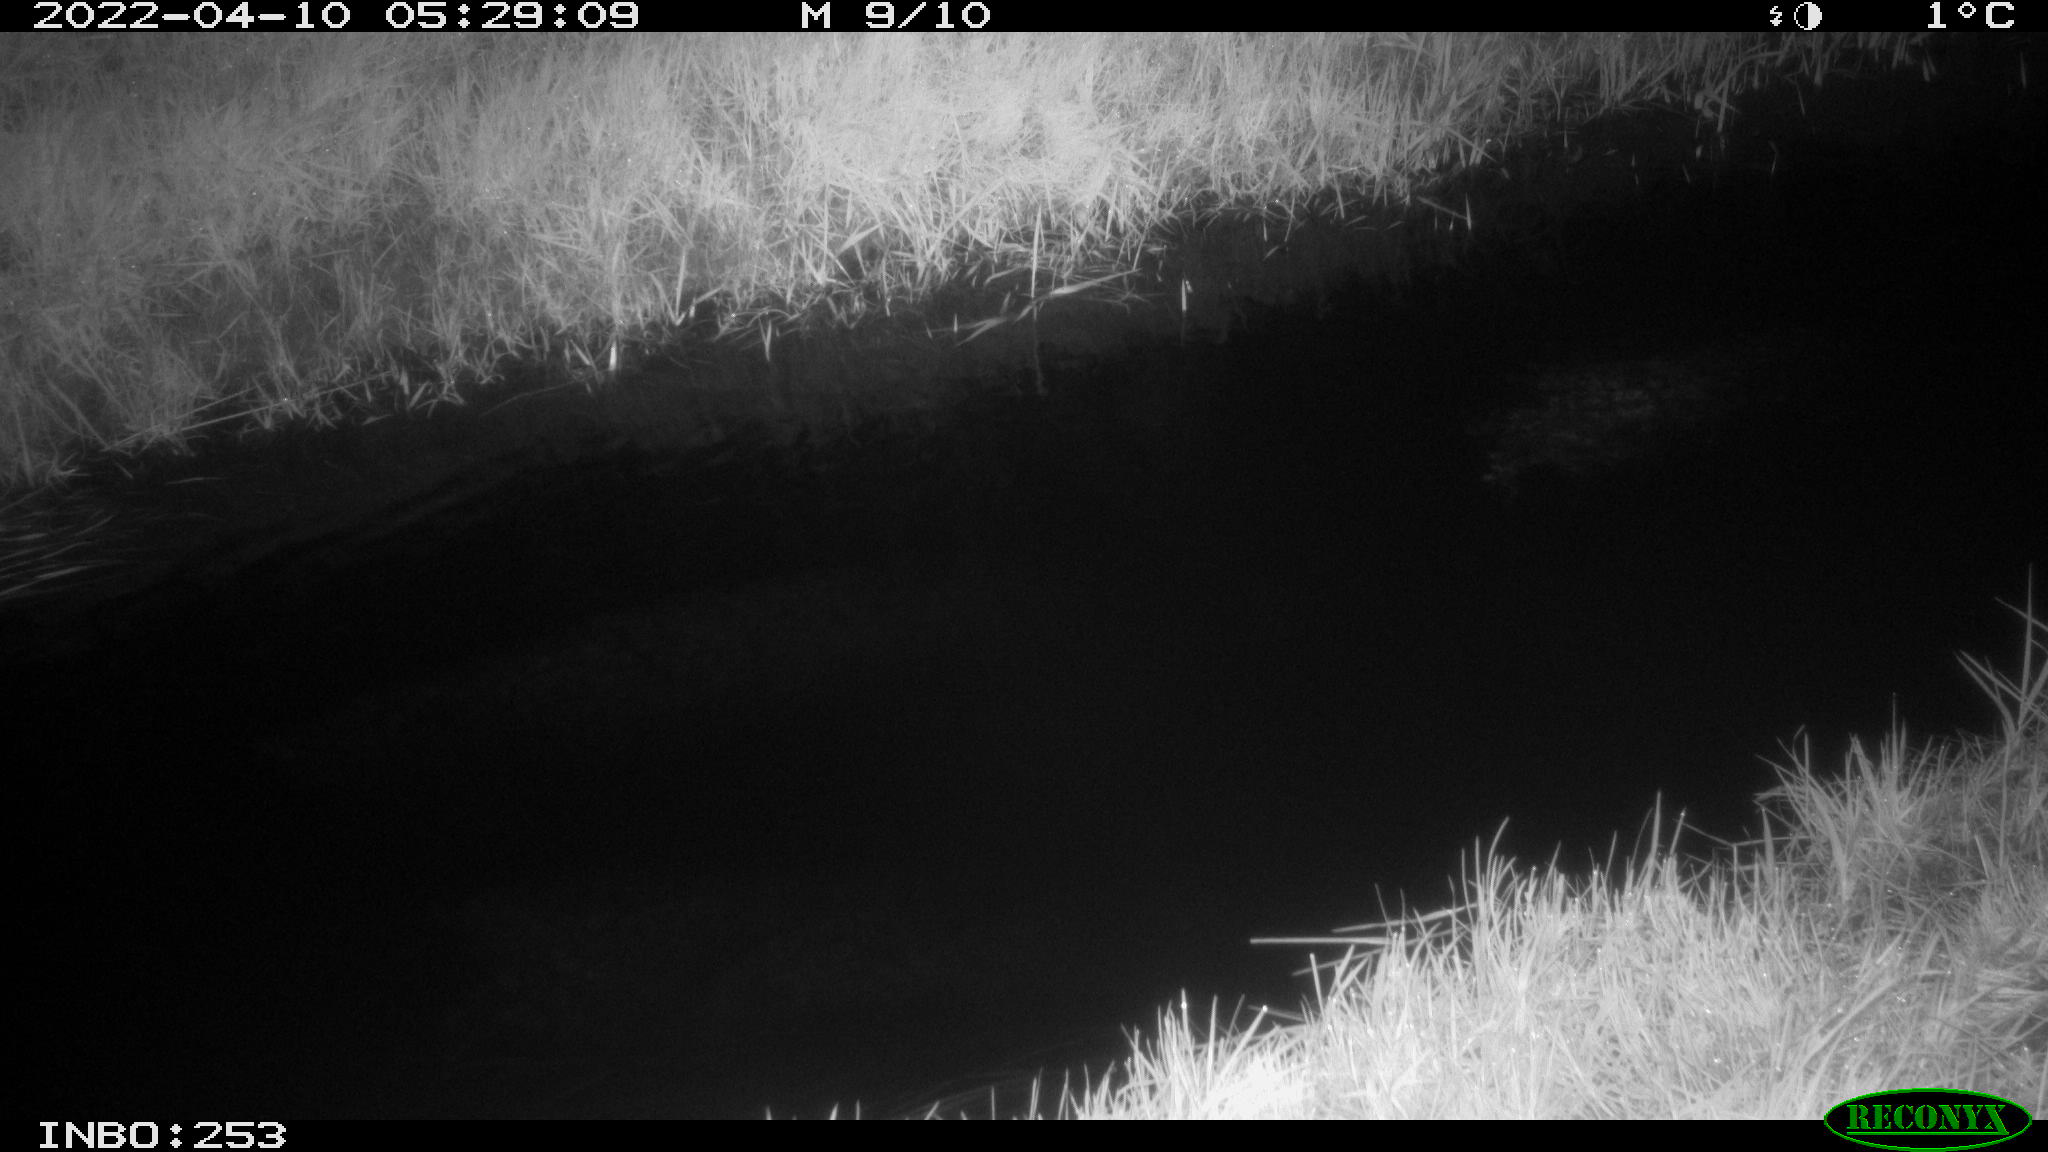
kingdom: Animalia
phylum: Chordata
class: Aves
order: Anseriformes
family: Anatidae
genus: Anas
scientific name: Anas platyrhynchos
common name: Mallard
